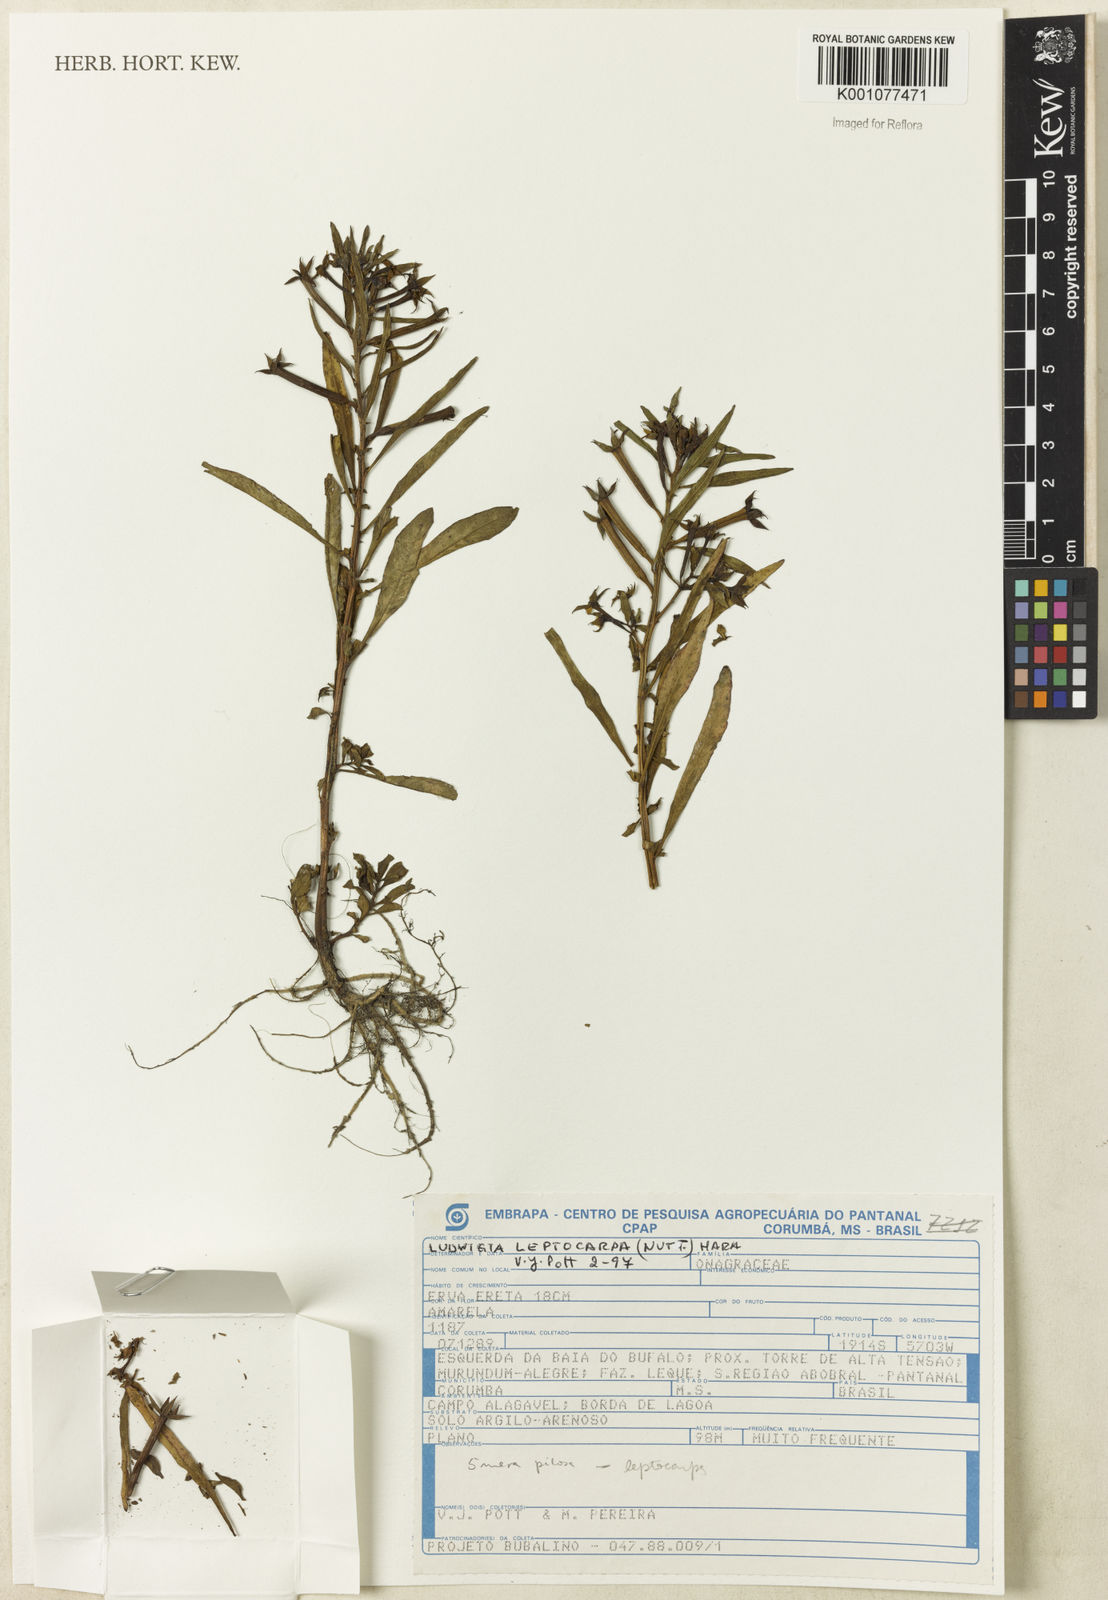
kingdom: Plantae
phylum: Tracheophyta
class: Magnoliopsida
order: Myrtales
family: Onagraceae
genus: Ludwigia
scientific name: Ludwigia leptocarpa
